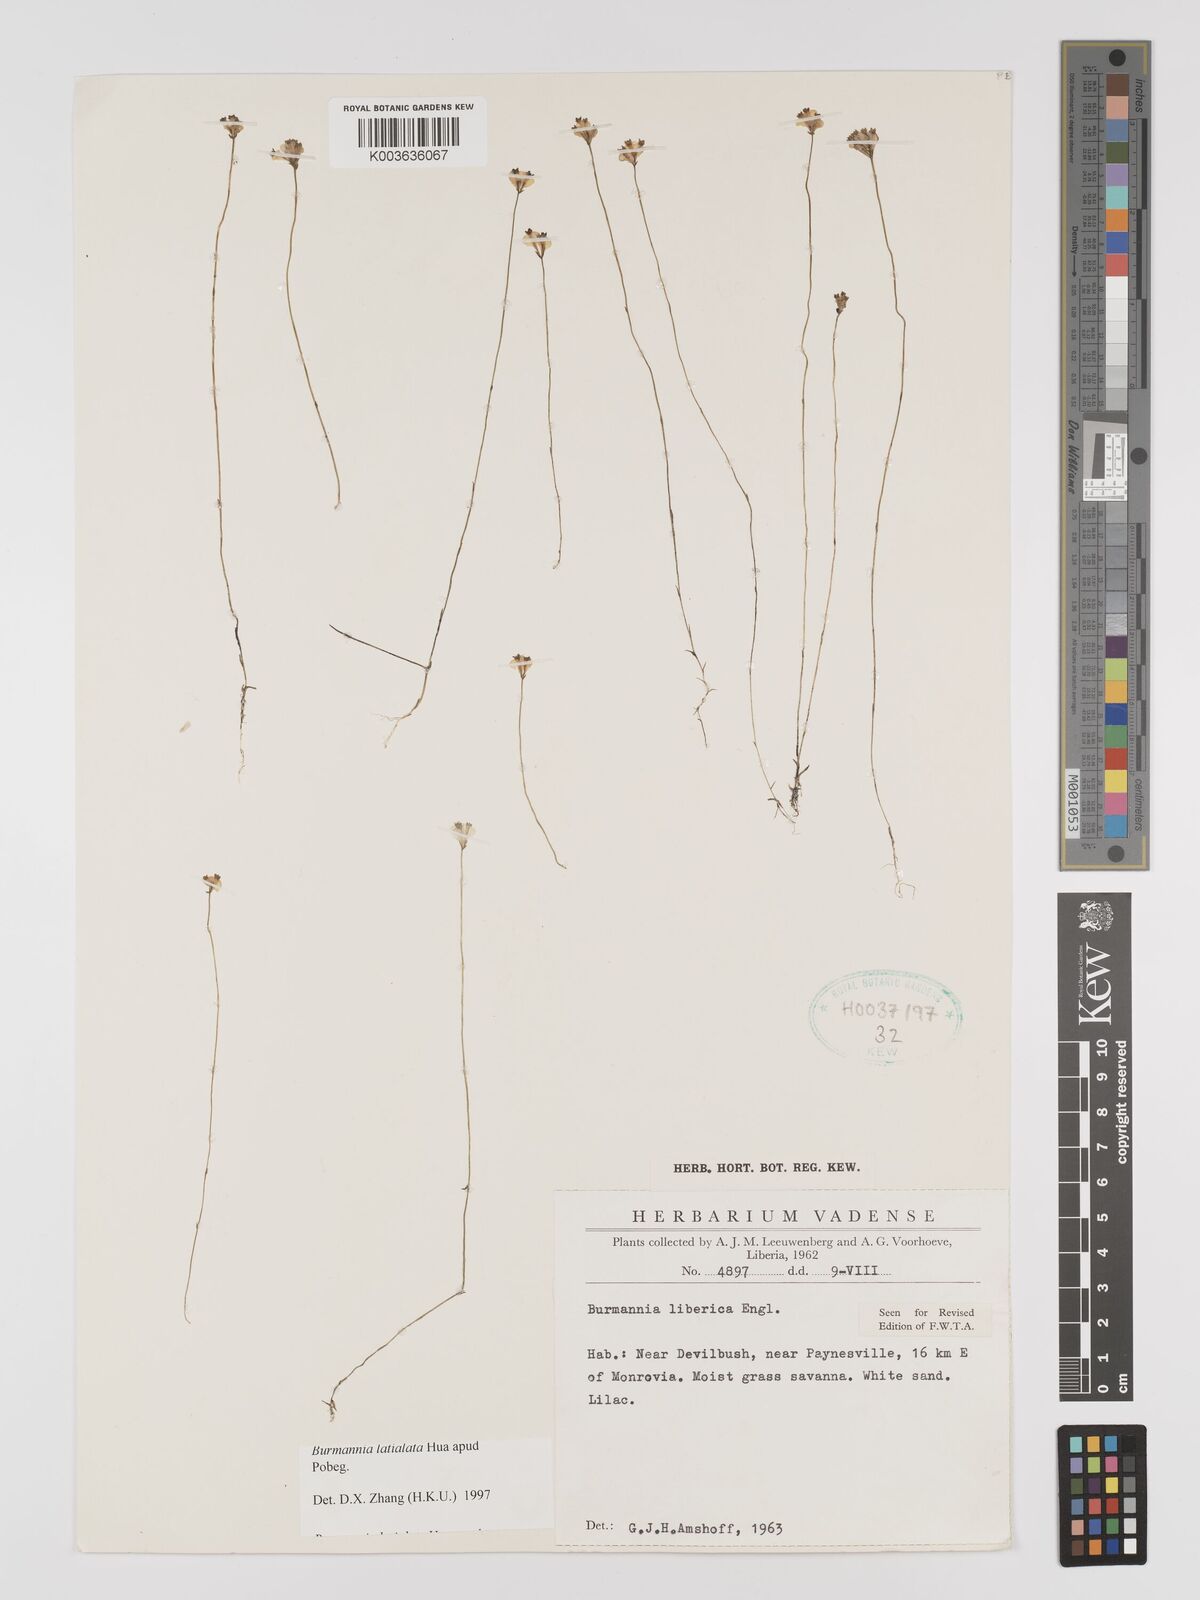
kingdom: Plantae
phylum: Tracheophyta
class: Liliopsida
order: Dioscoreales
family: Burmanniaceae
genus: Burmannia
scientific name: Burmannia madagascariensis
